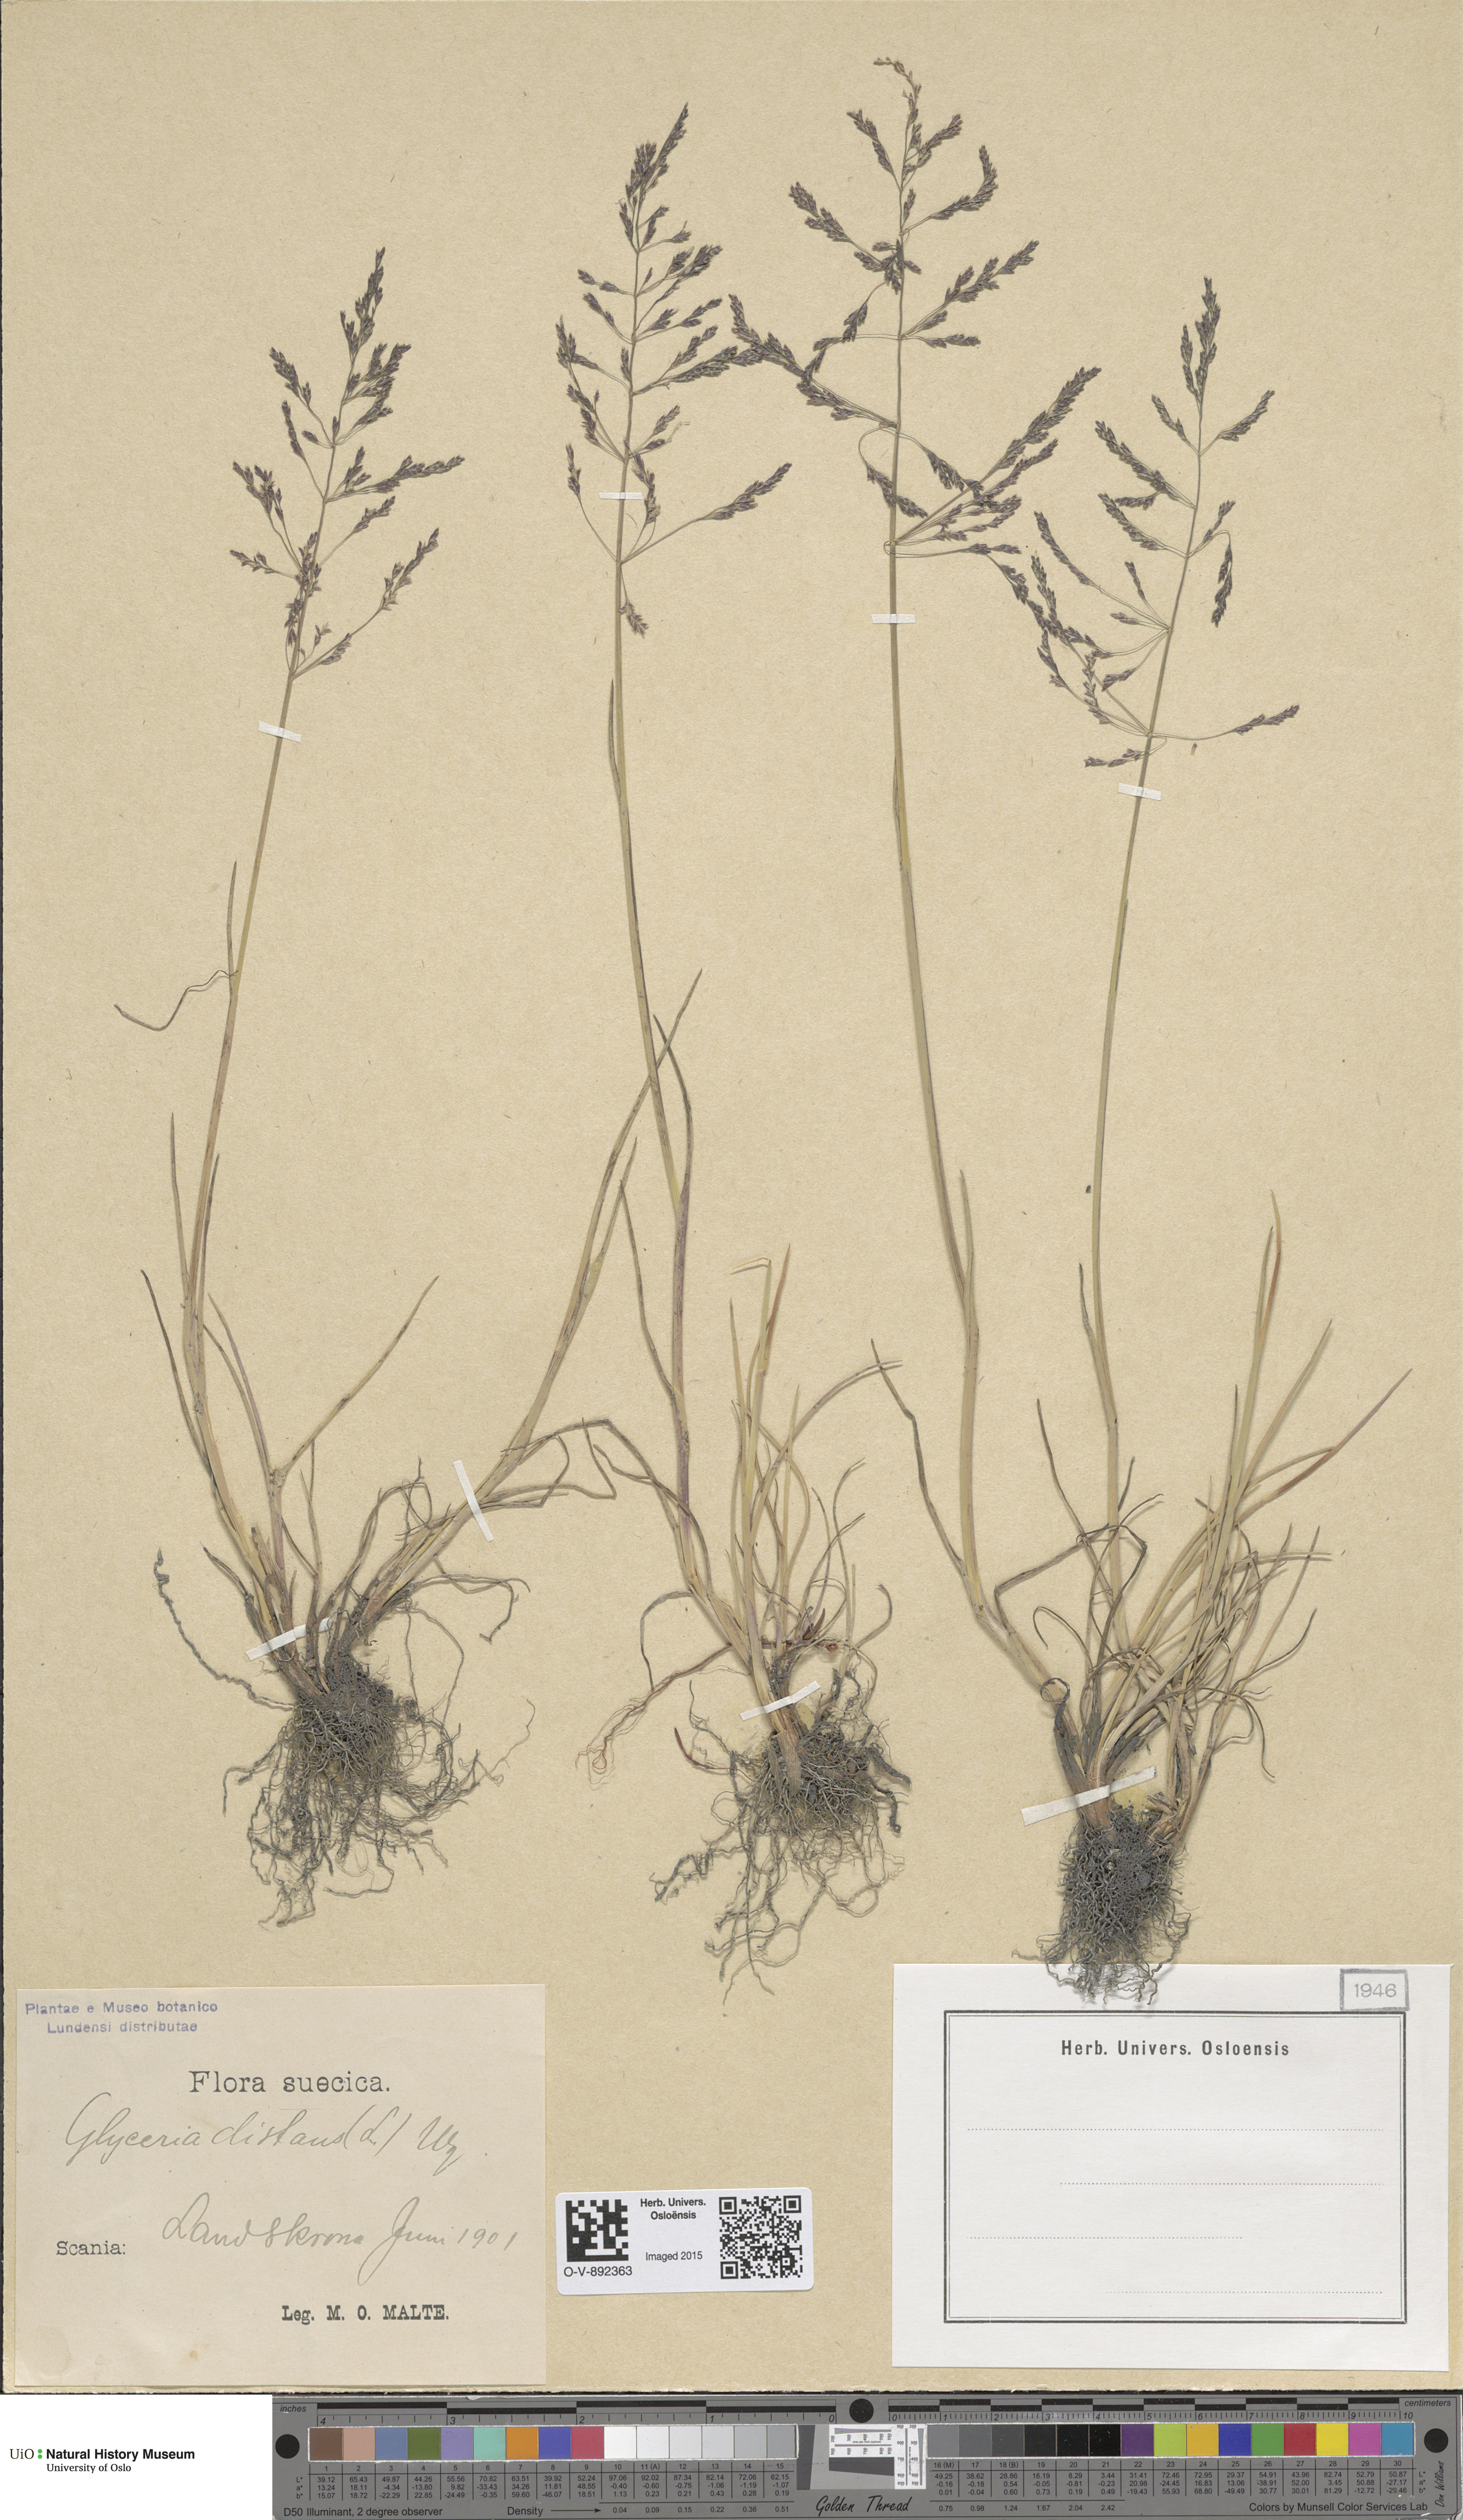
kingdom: Plantae
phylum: Tracheophyta
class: Liliopsida
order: Poales
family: Poaceae
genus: Puccinellia
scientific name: Puccinellia distans
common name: Weeping alkaligrass
